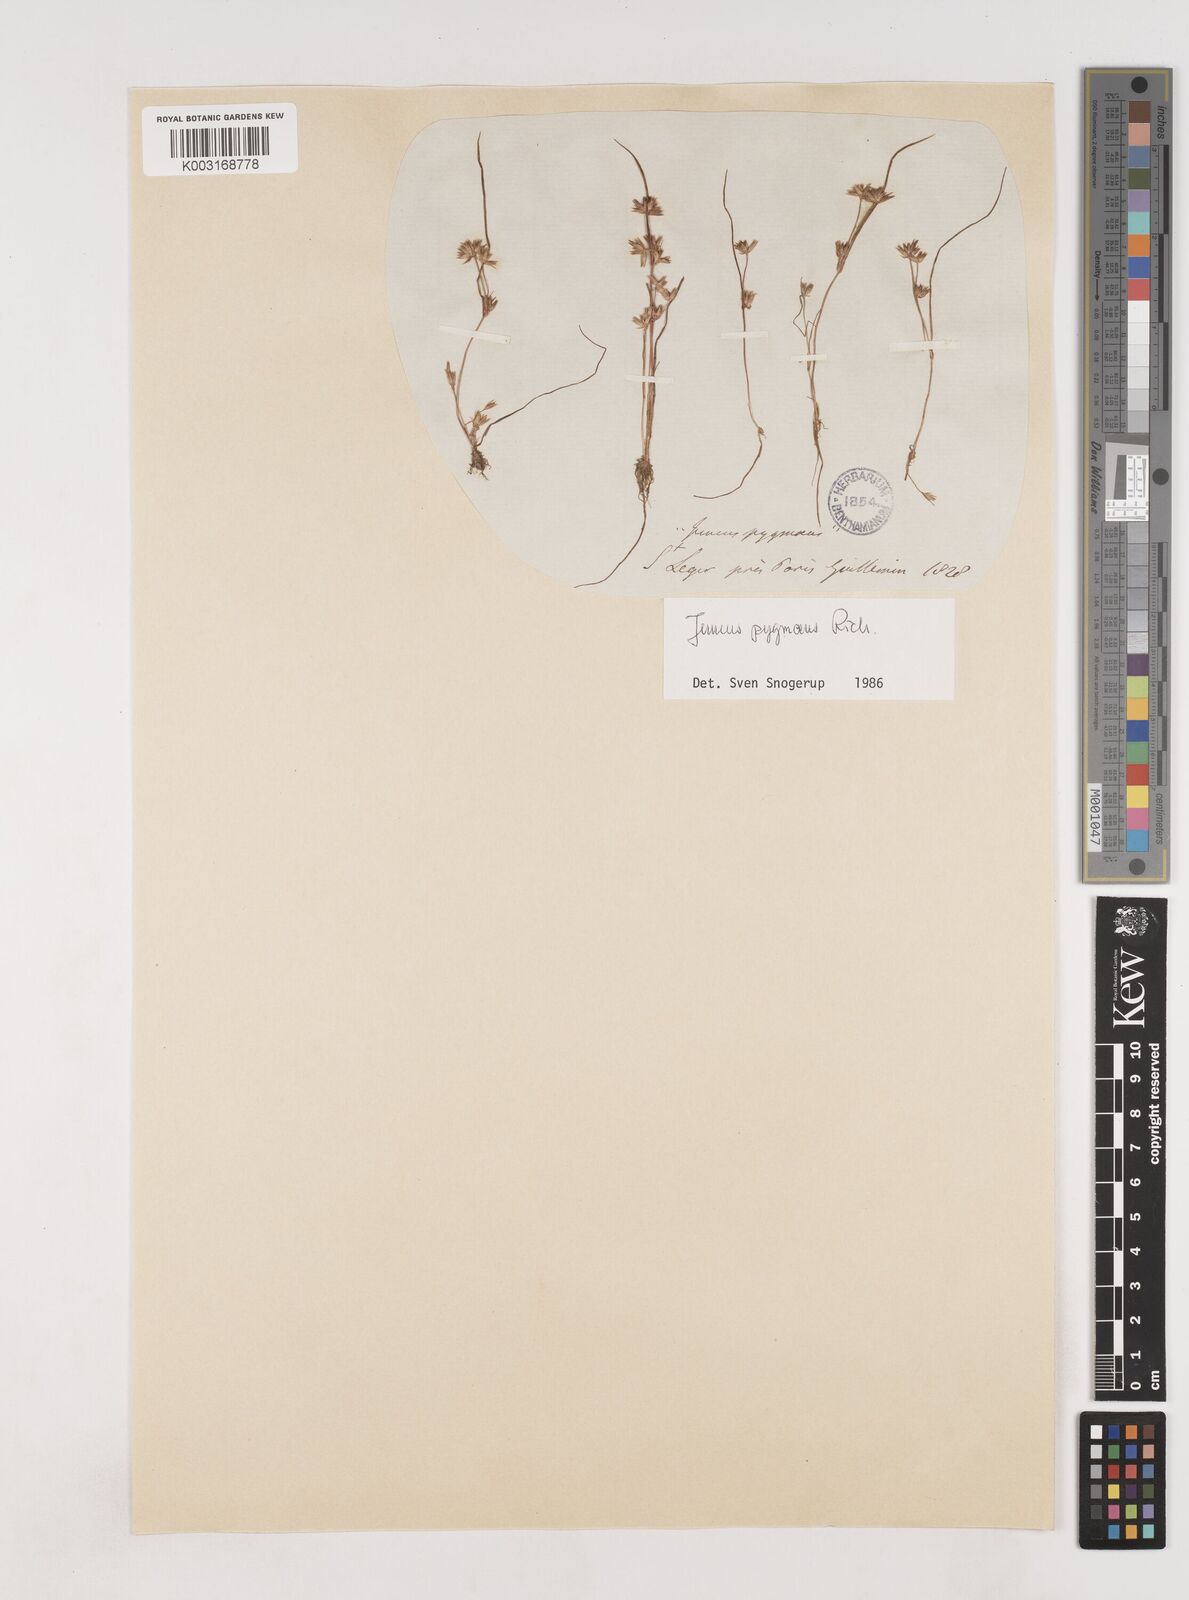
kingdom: Plantae
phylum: Tracheophyta
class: Liliopsida
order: Poales
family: Juncaceae
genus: Juncus
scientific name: Juncus pygmaeus
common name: Pigmy rush
